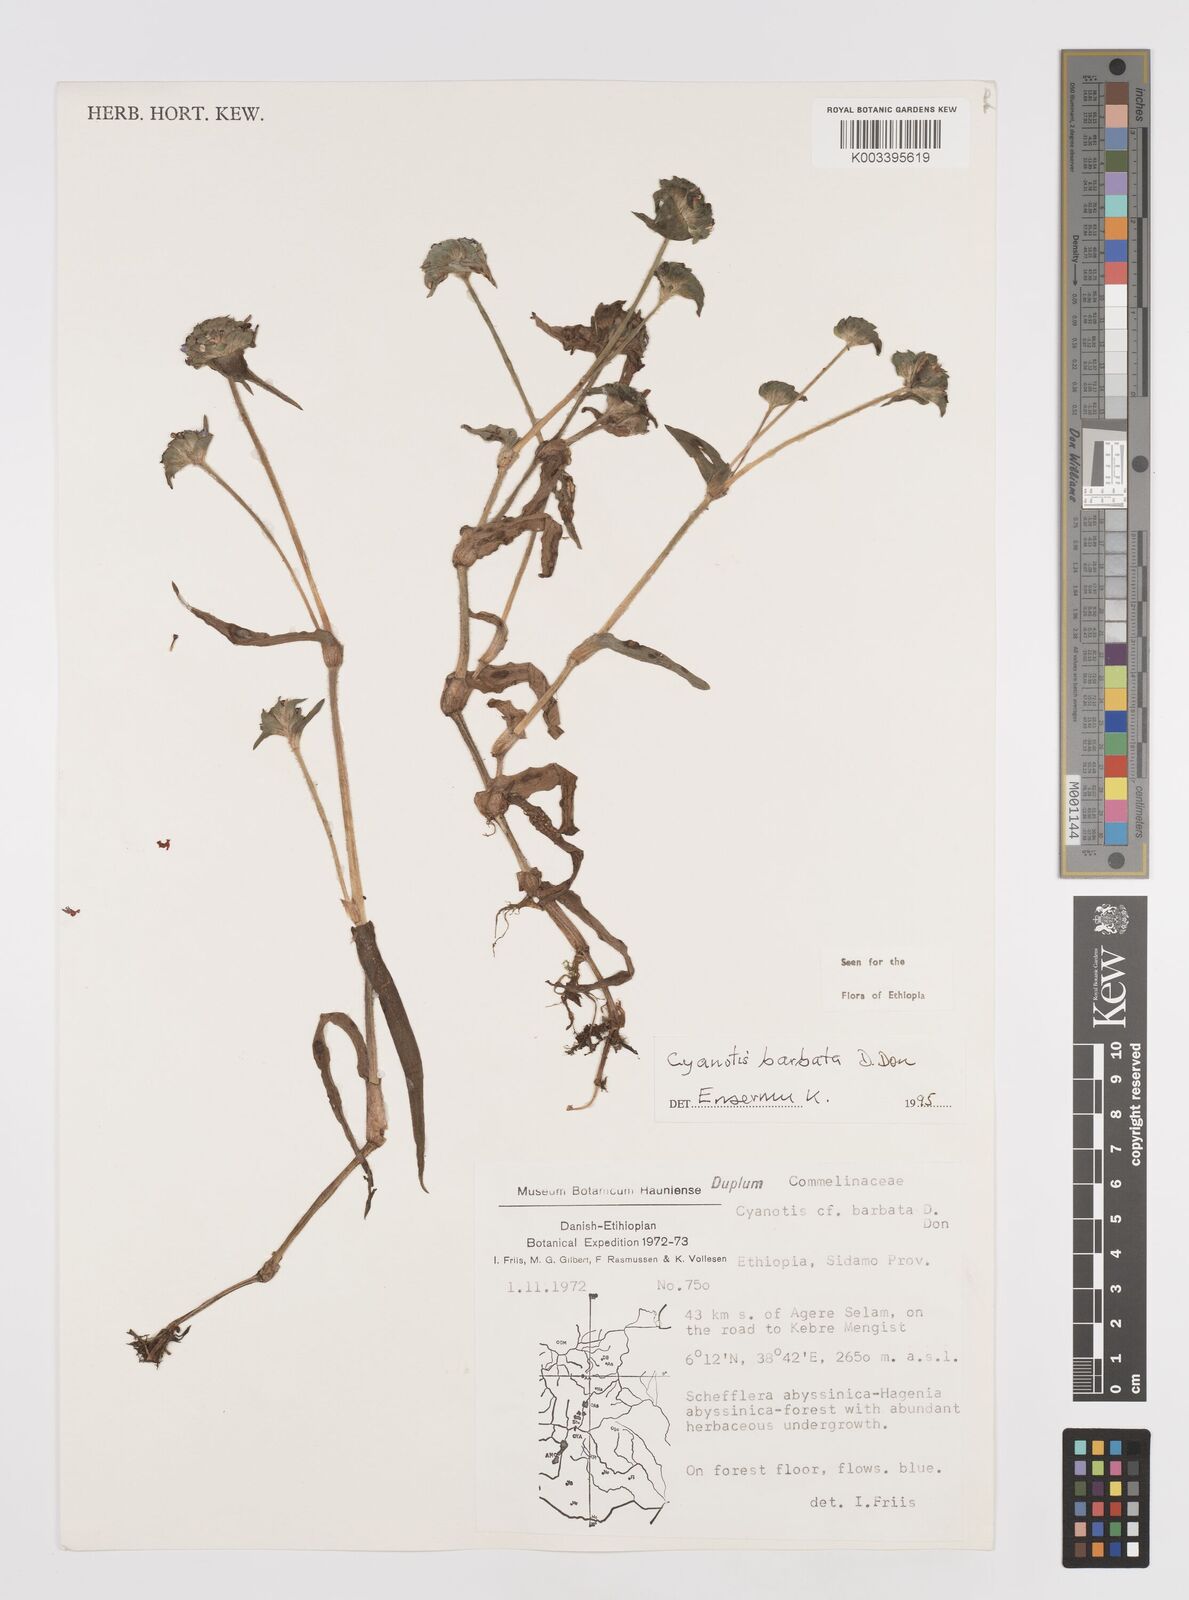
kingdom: Plantae
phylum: Tracheophyta
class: Liliopsida
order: Commelinales
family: Commelinaceae
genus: Cyanotis
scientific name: Cyanotis vaga
